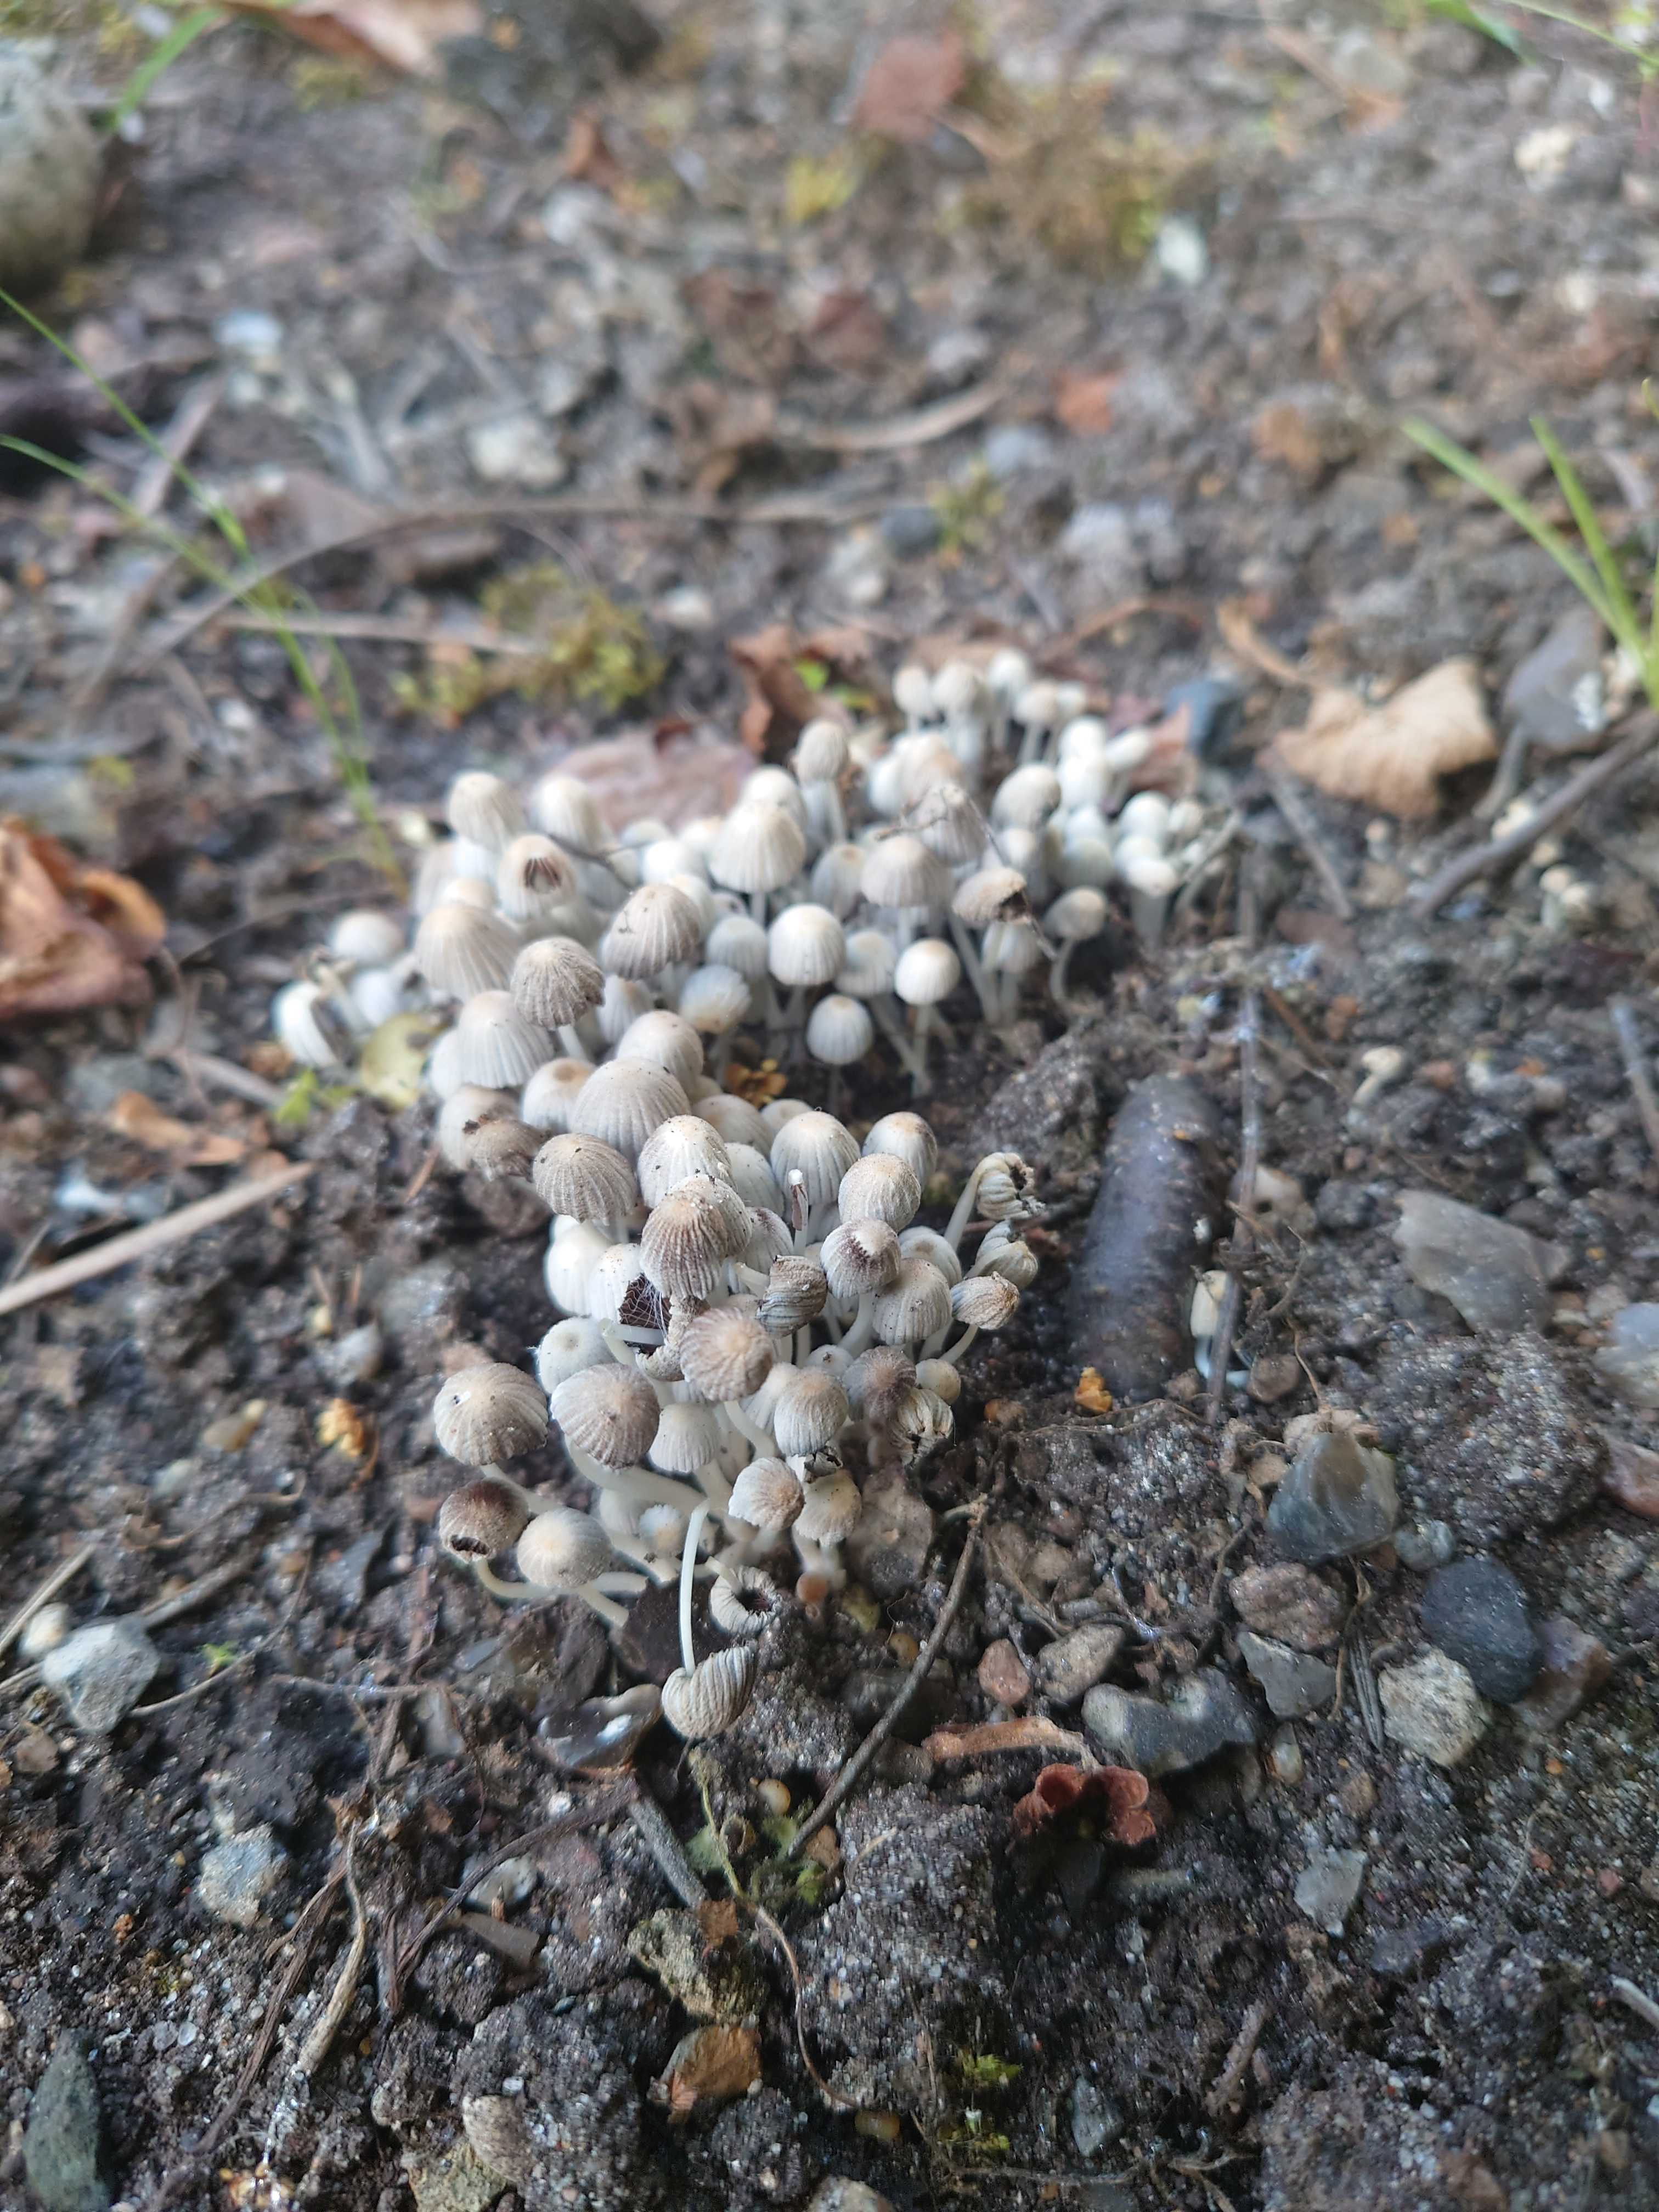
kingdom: Fungi
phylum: Basidiomycota
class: Agaricomycetes
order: Agaricales
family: Psathyrellaceae
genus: Coprinellus
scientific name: Coprinellus disseminatus
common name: bredsået blækhat
